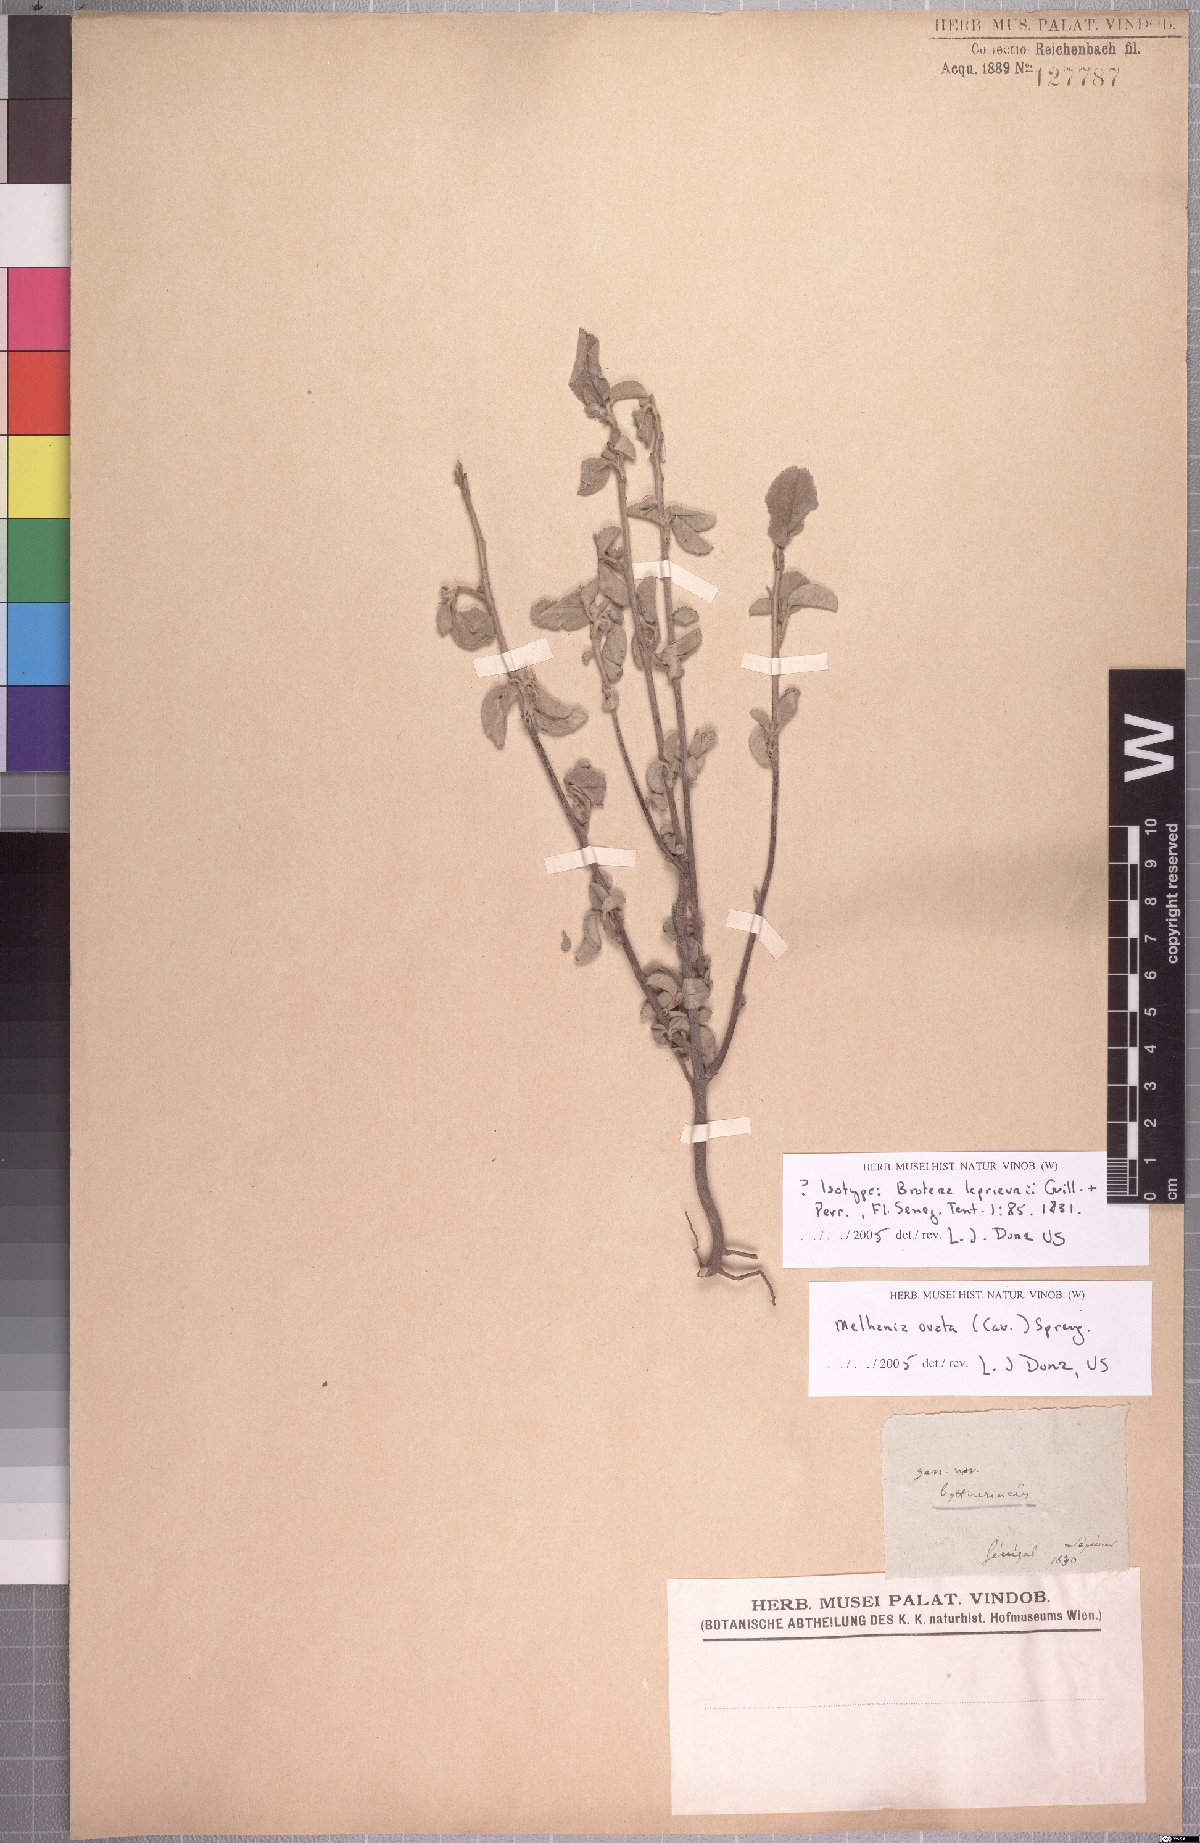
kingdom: Plantae
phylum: Tracheophyta
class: Magnoliopsida
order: Malvales
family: Malvaceae
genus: Melhania
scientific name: Melhania ovata
